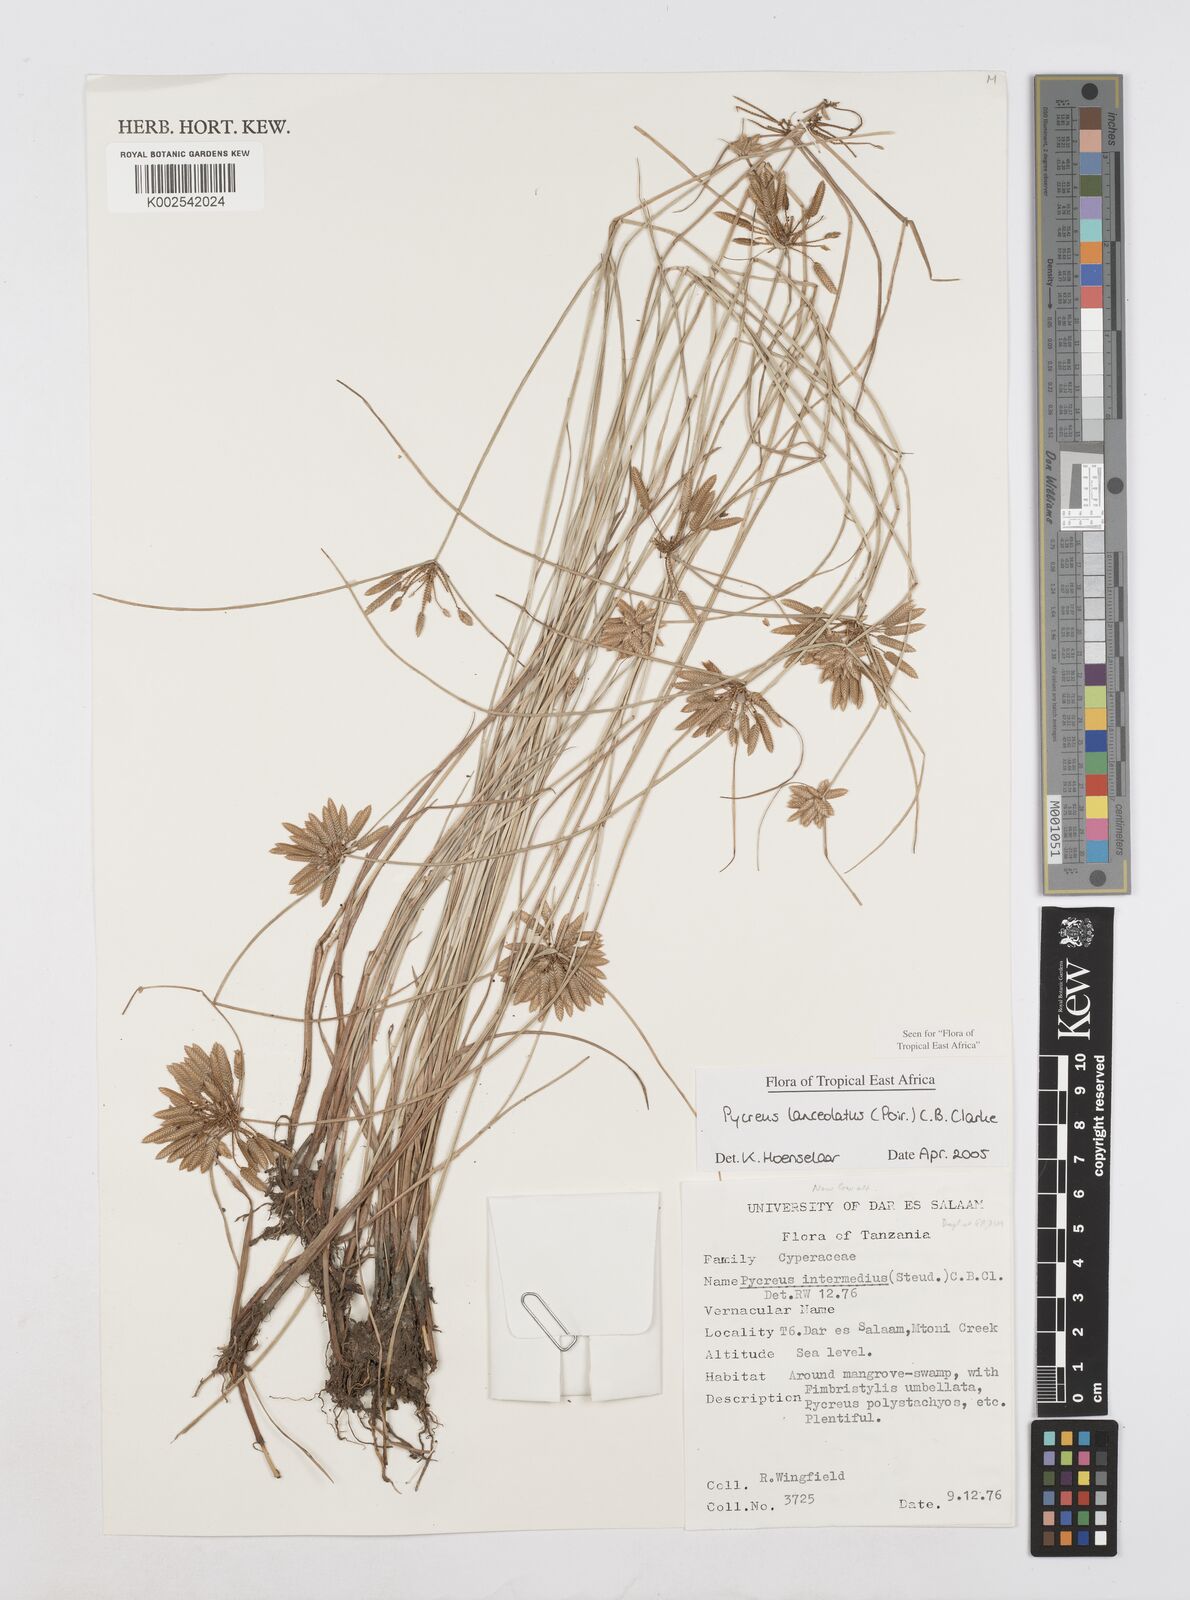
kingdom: Plantae
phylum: Tracheophyta
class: Liliopsida
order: Poales
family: Cyperaceae
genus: Cyperus
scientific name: Cyperus lanceolatus
